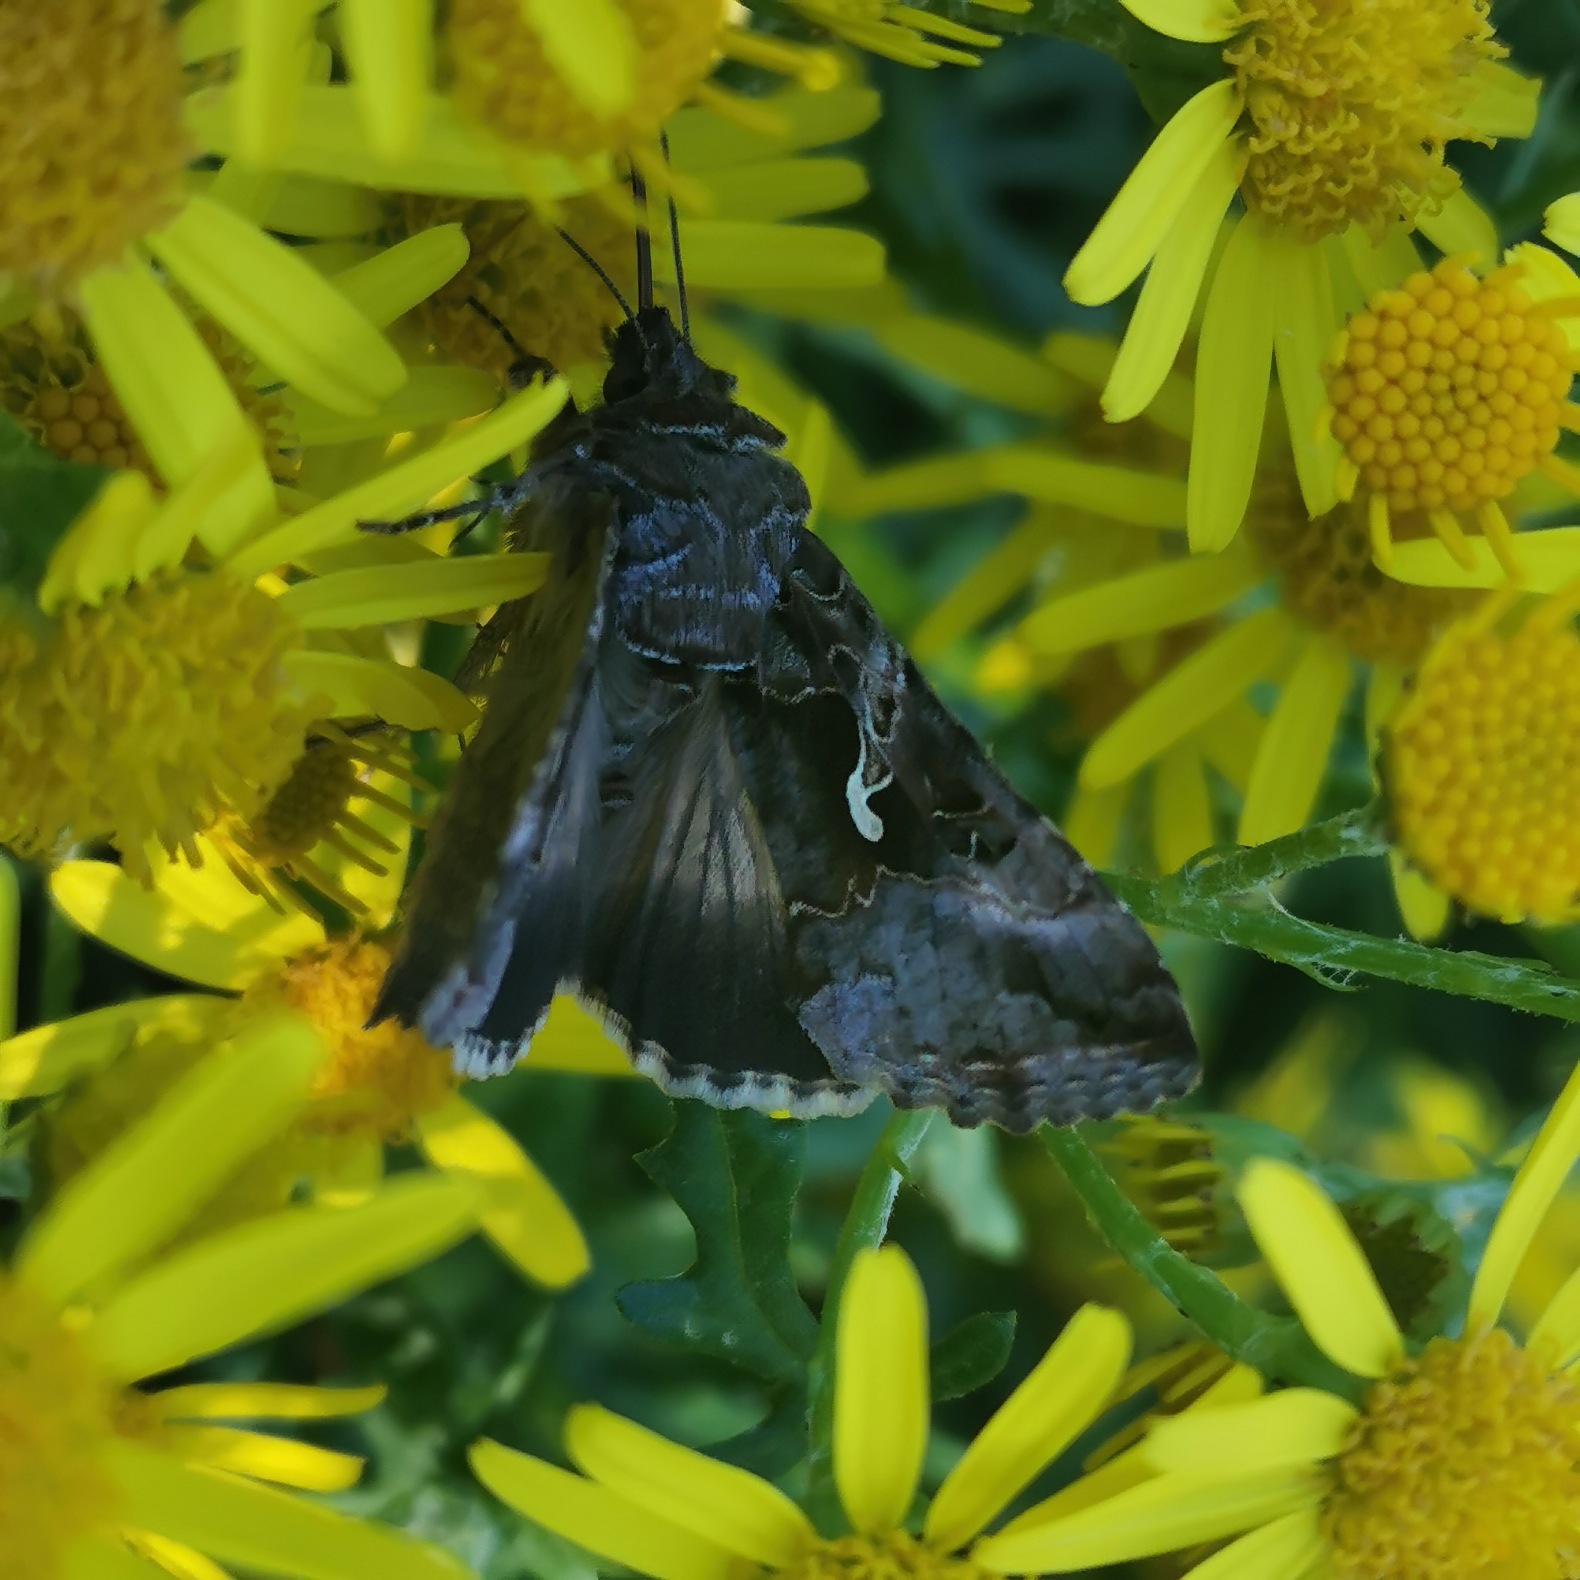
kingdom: Animalia
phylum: Arthropoda
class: Insecta
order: Lepidoptera
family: Noctuidae
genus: Autographa
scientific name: Autographa gamma
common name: Gammaugle
